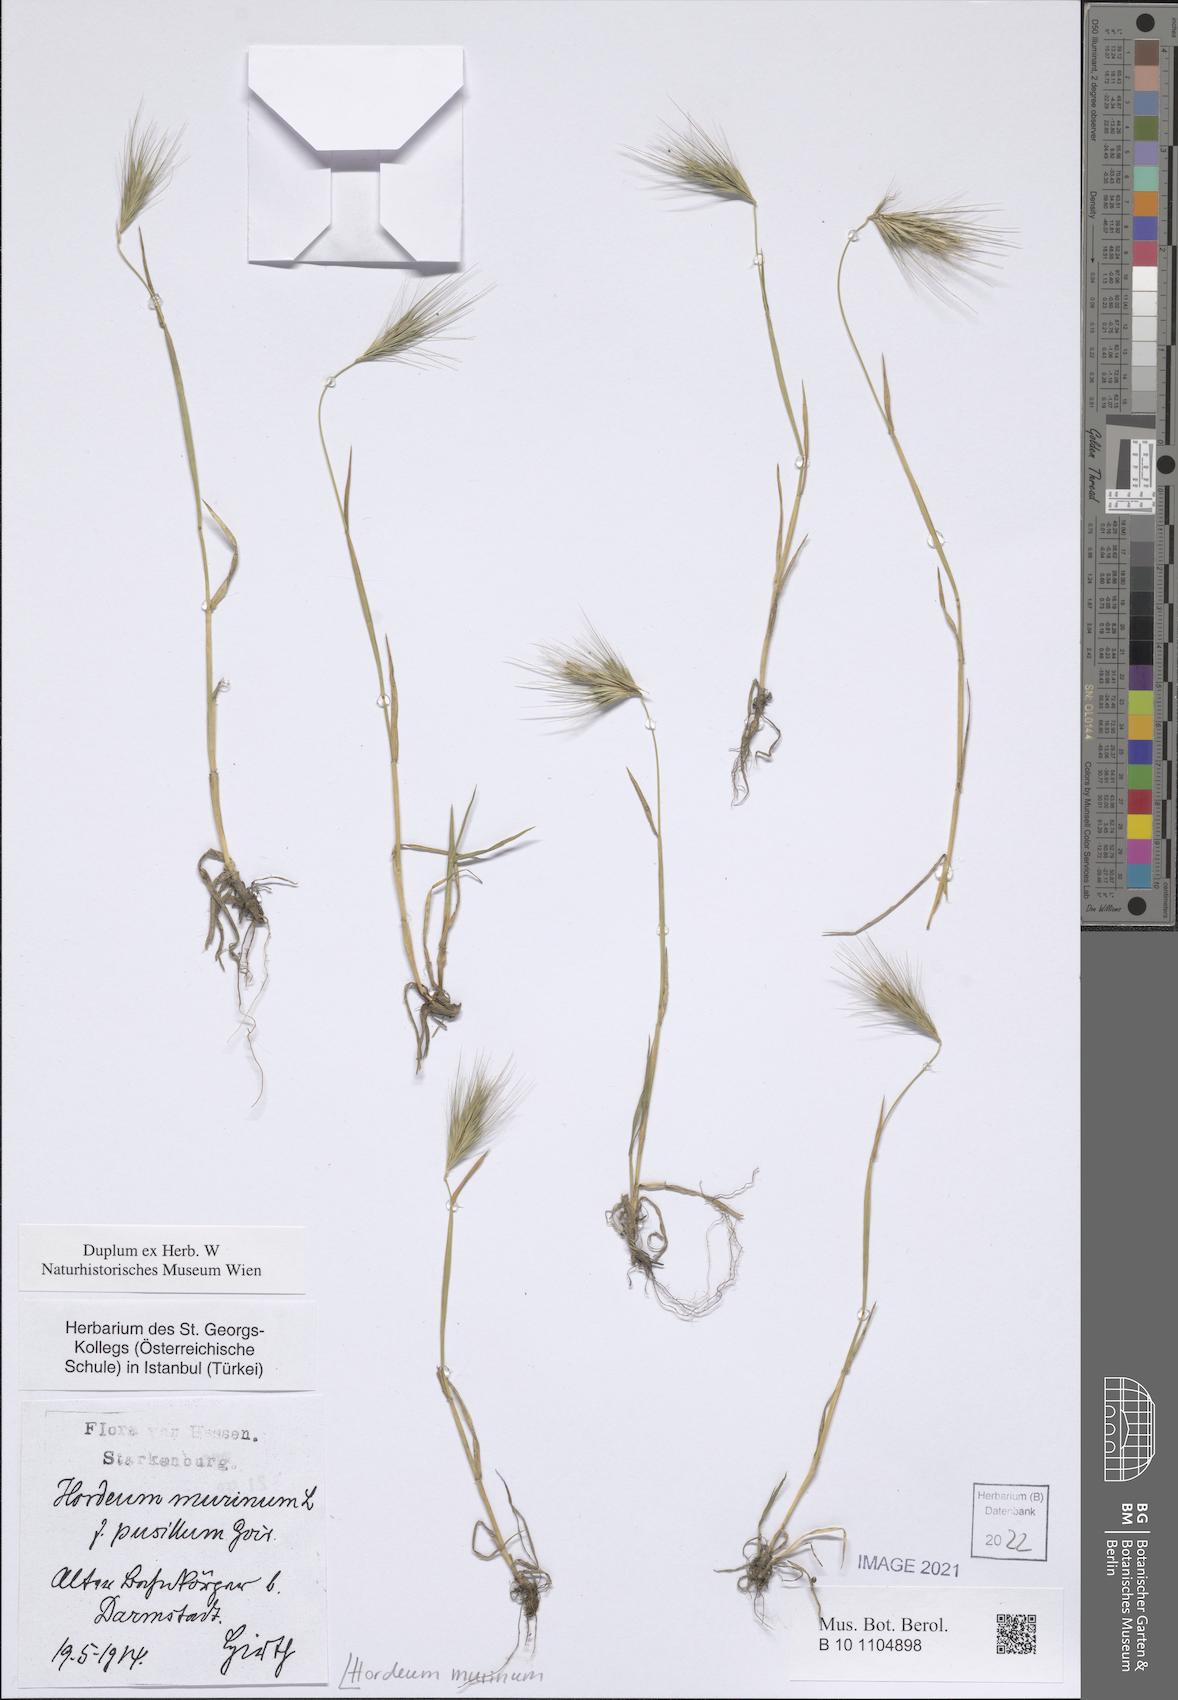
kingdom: Plantae
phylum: Tracheophyta
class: Liliopsida
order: Poales
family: Poaceae
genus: Hordeum
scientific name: Hordeum murinum
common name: Wall barley
